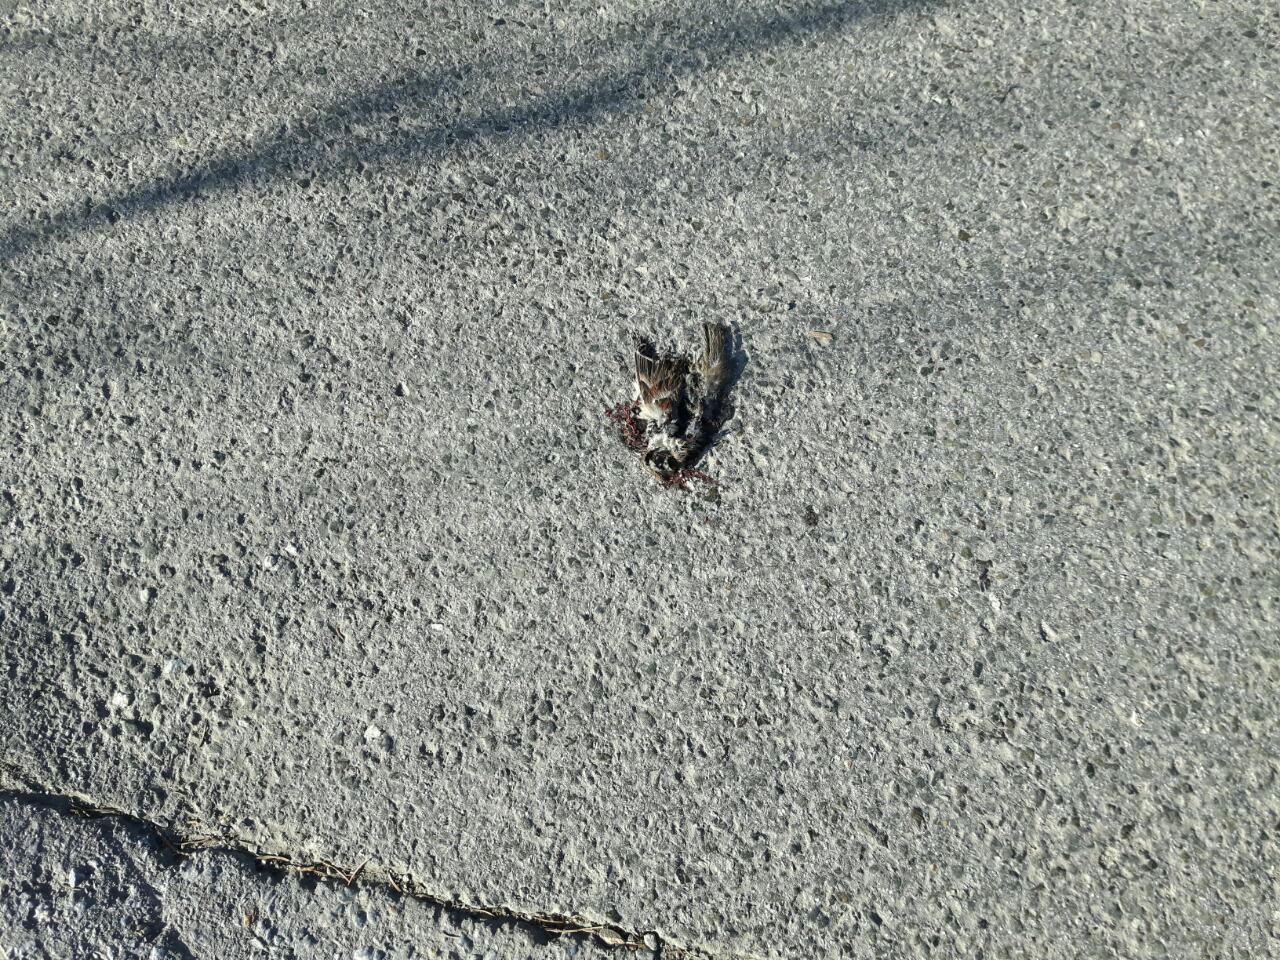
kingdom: Animalia
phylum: Chordata
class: Aves
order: Passeriformes
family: Passeridae
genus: Passer
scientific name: Passer domesticus
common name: House sparrow
